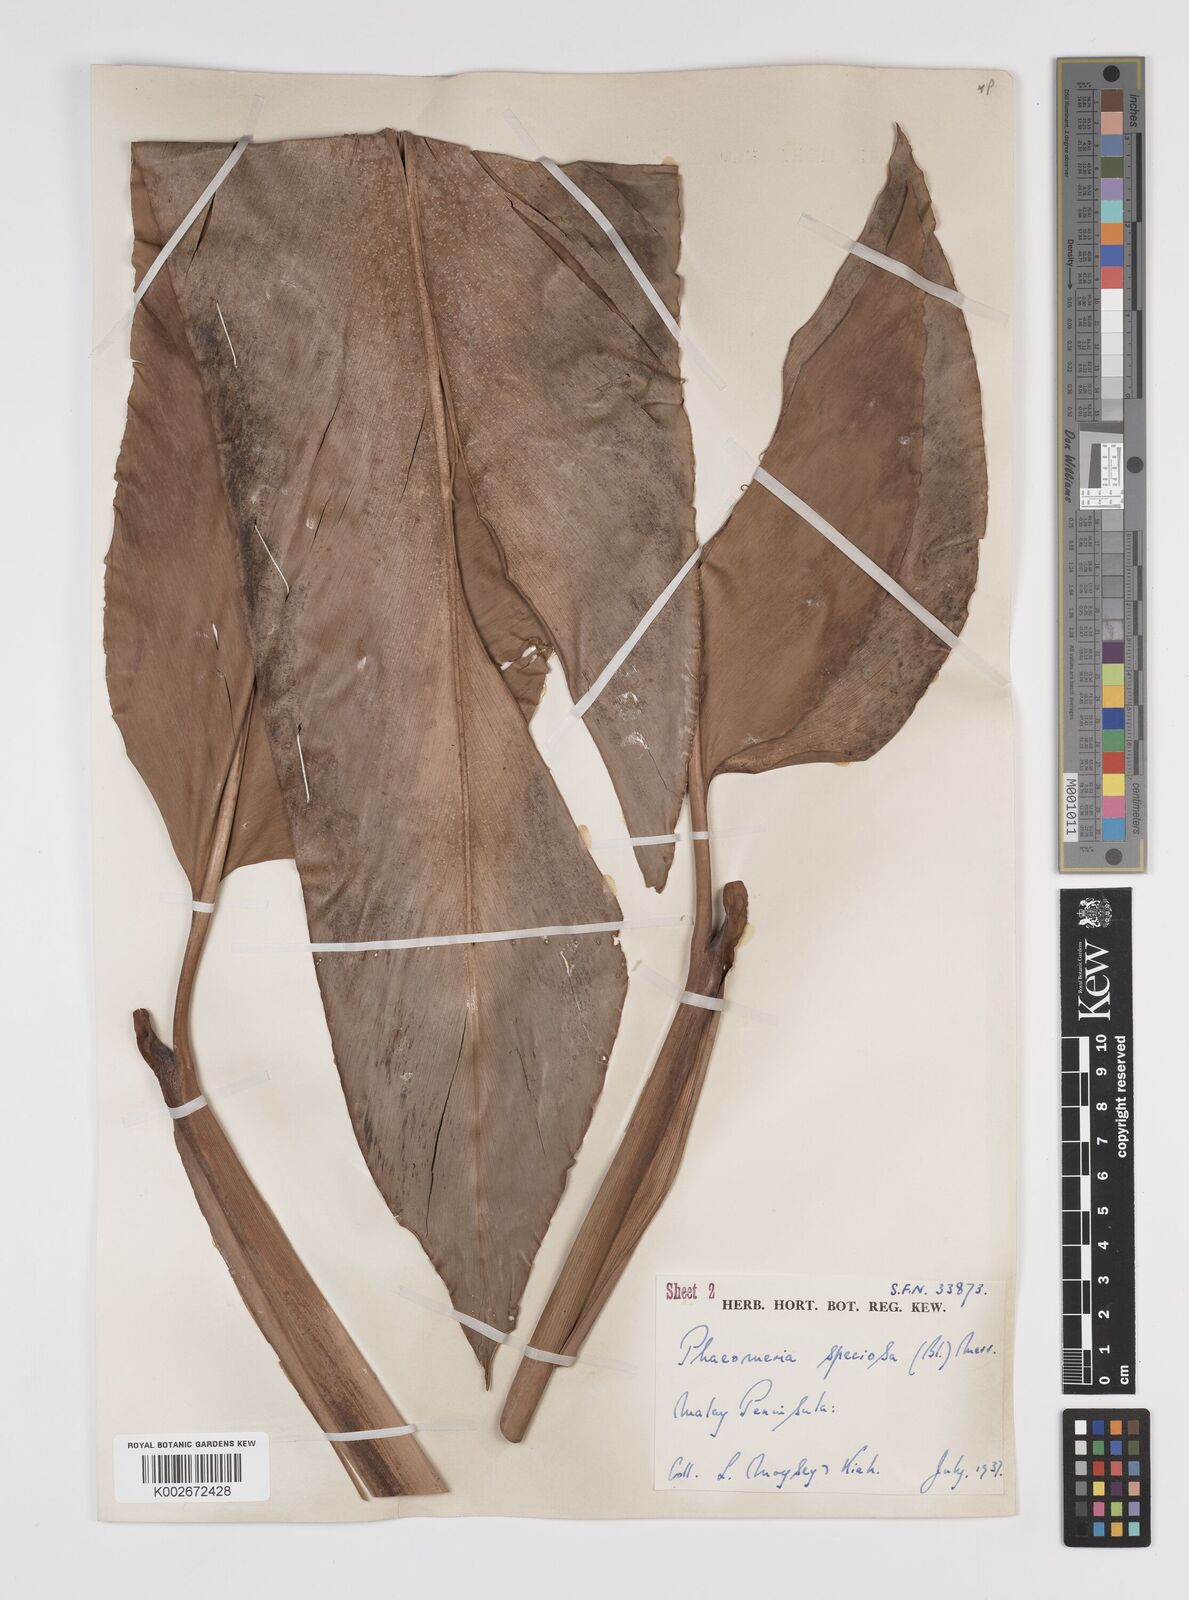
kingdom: Plantae
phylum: Tracheophyta
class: Liliopsida
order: Zingiberales
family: Zingiberaceae
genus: Etlingera
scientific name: Etlingera elatior
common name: Philippine waxflower
